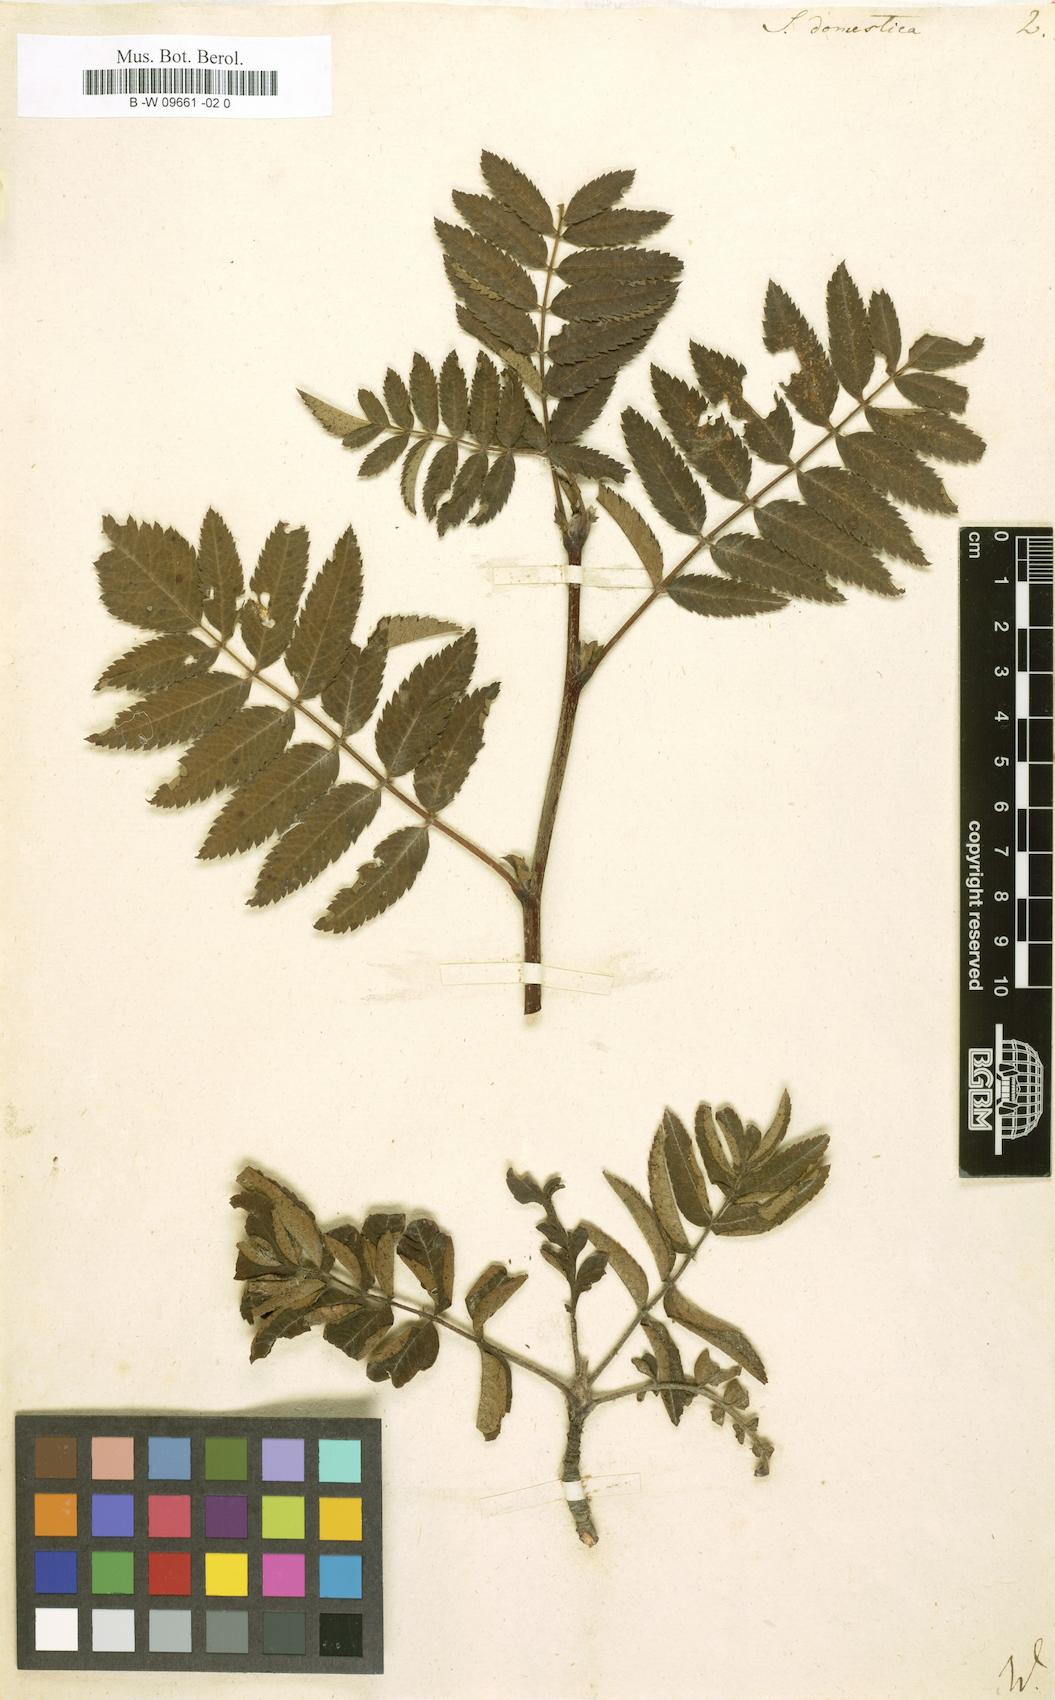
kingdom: Plantae
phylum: Tracheophyta
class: Magnoliopsida
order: Rosales
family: Rosaceae
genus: Cormus
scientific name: Cormus domestica
